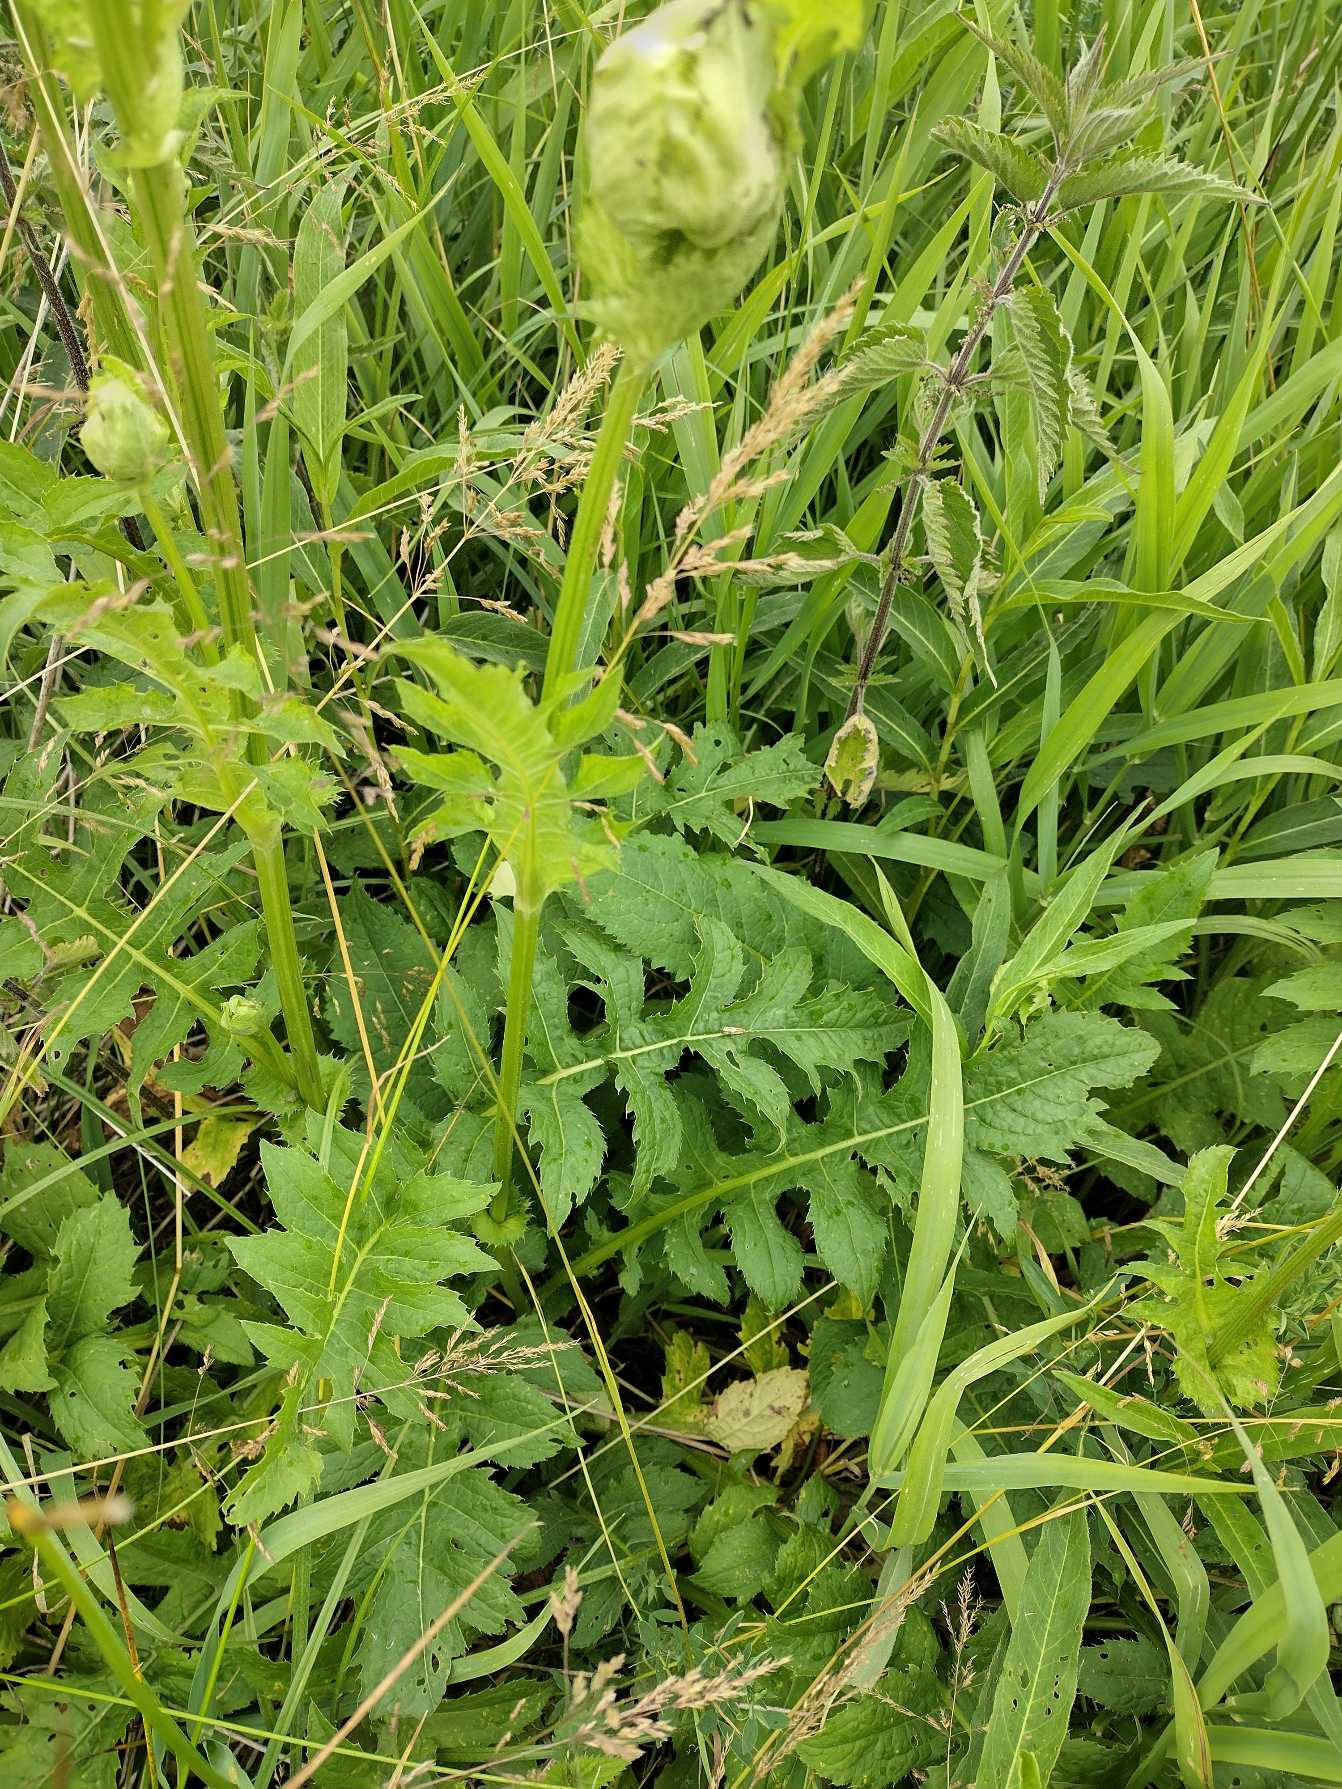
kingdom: Plantae
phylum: Tracheophyta
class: Magnoliopsida
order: Asterales
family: Asteraceae
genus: Cirsium
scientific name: Cirsium oleraceum
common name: Kål-tidsel
